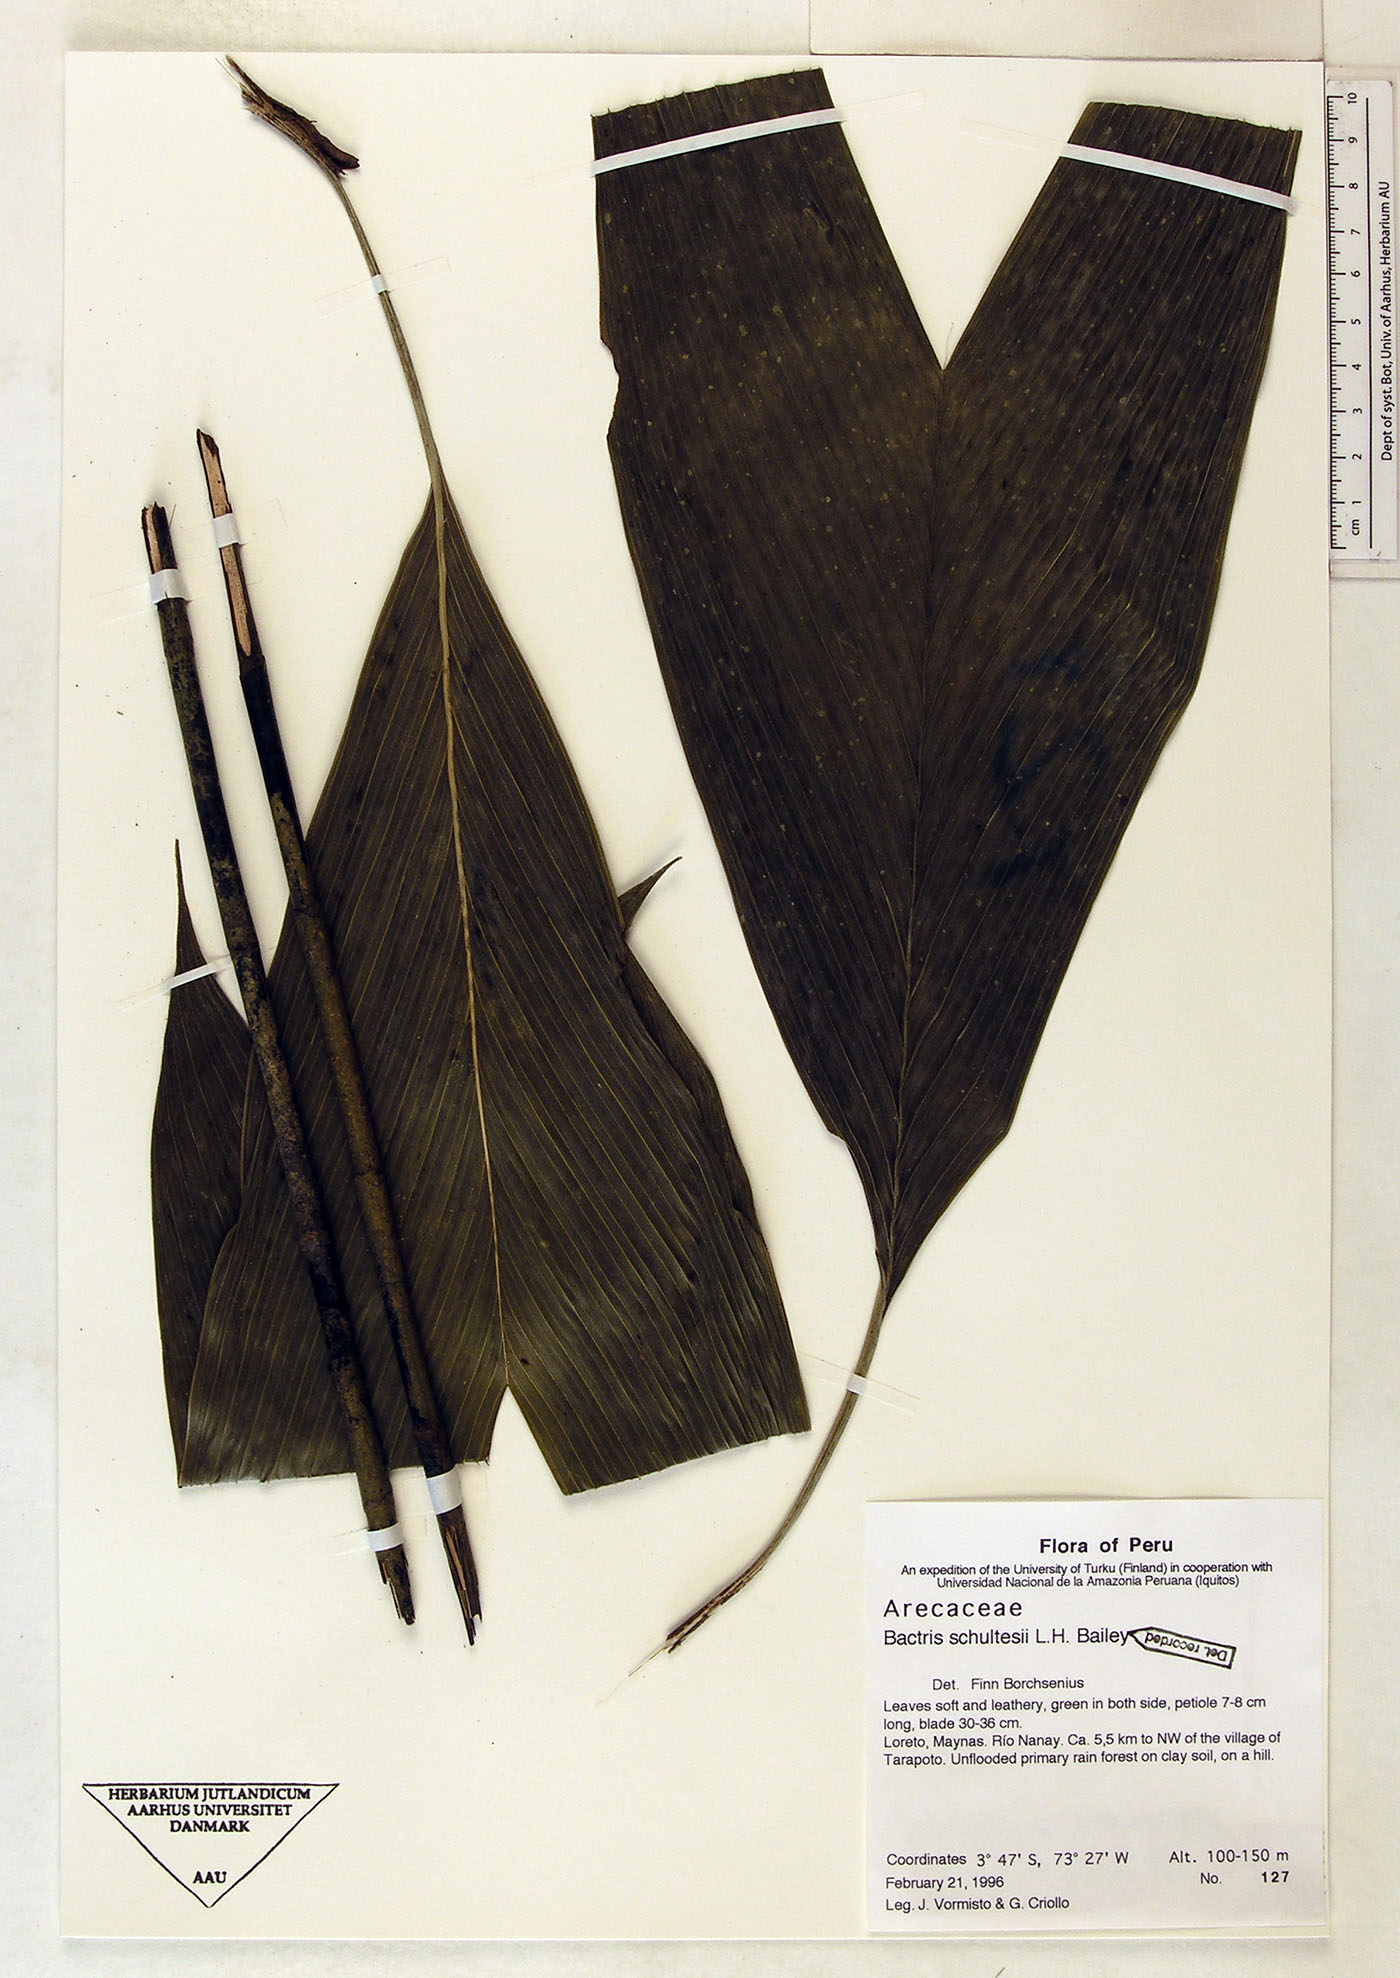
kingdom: Plantae
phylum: Tracheophyta
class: Liliopsida
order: Arecales
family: Arecaceae
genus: Bactris
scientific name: Bactris schultesii
